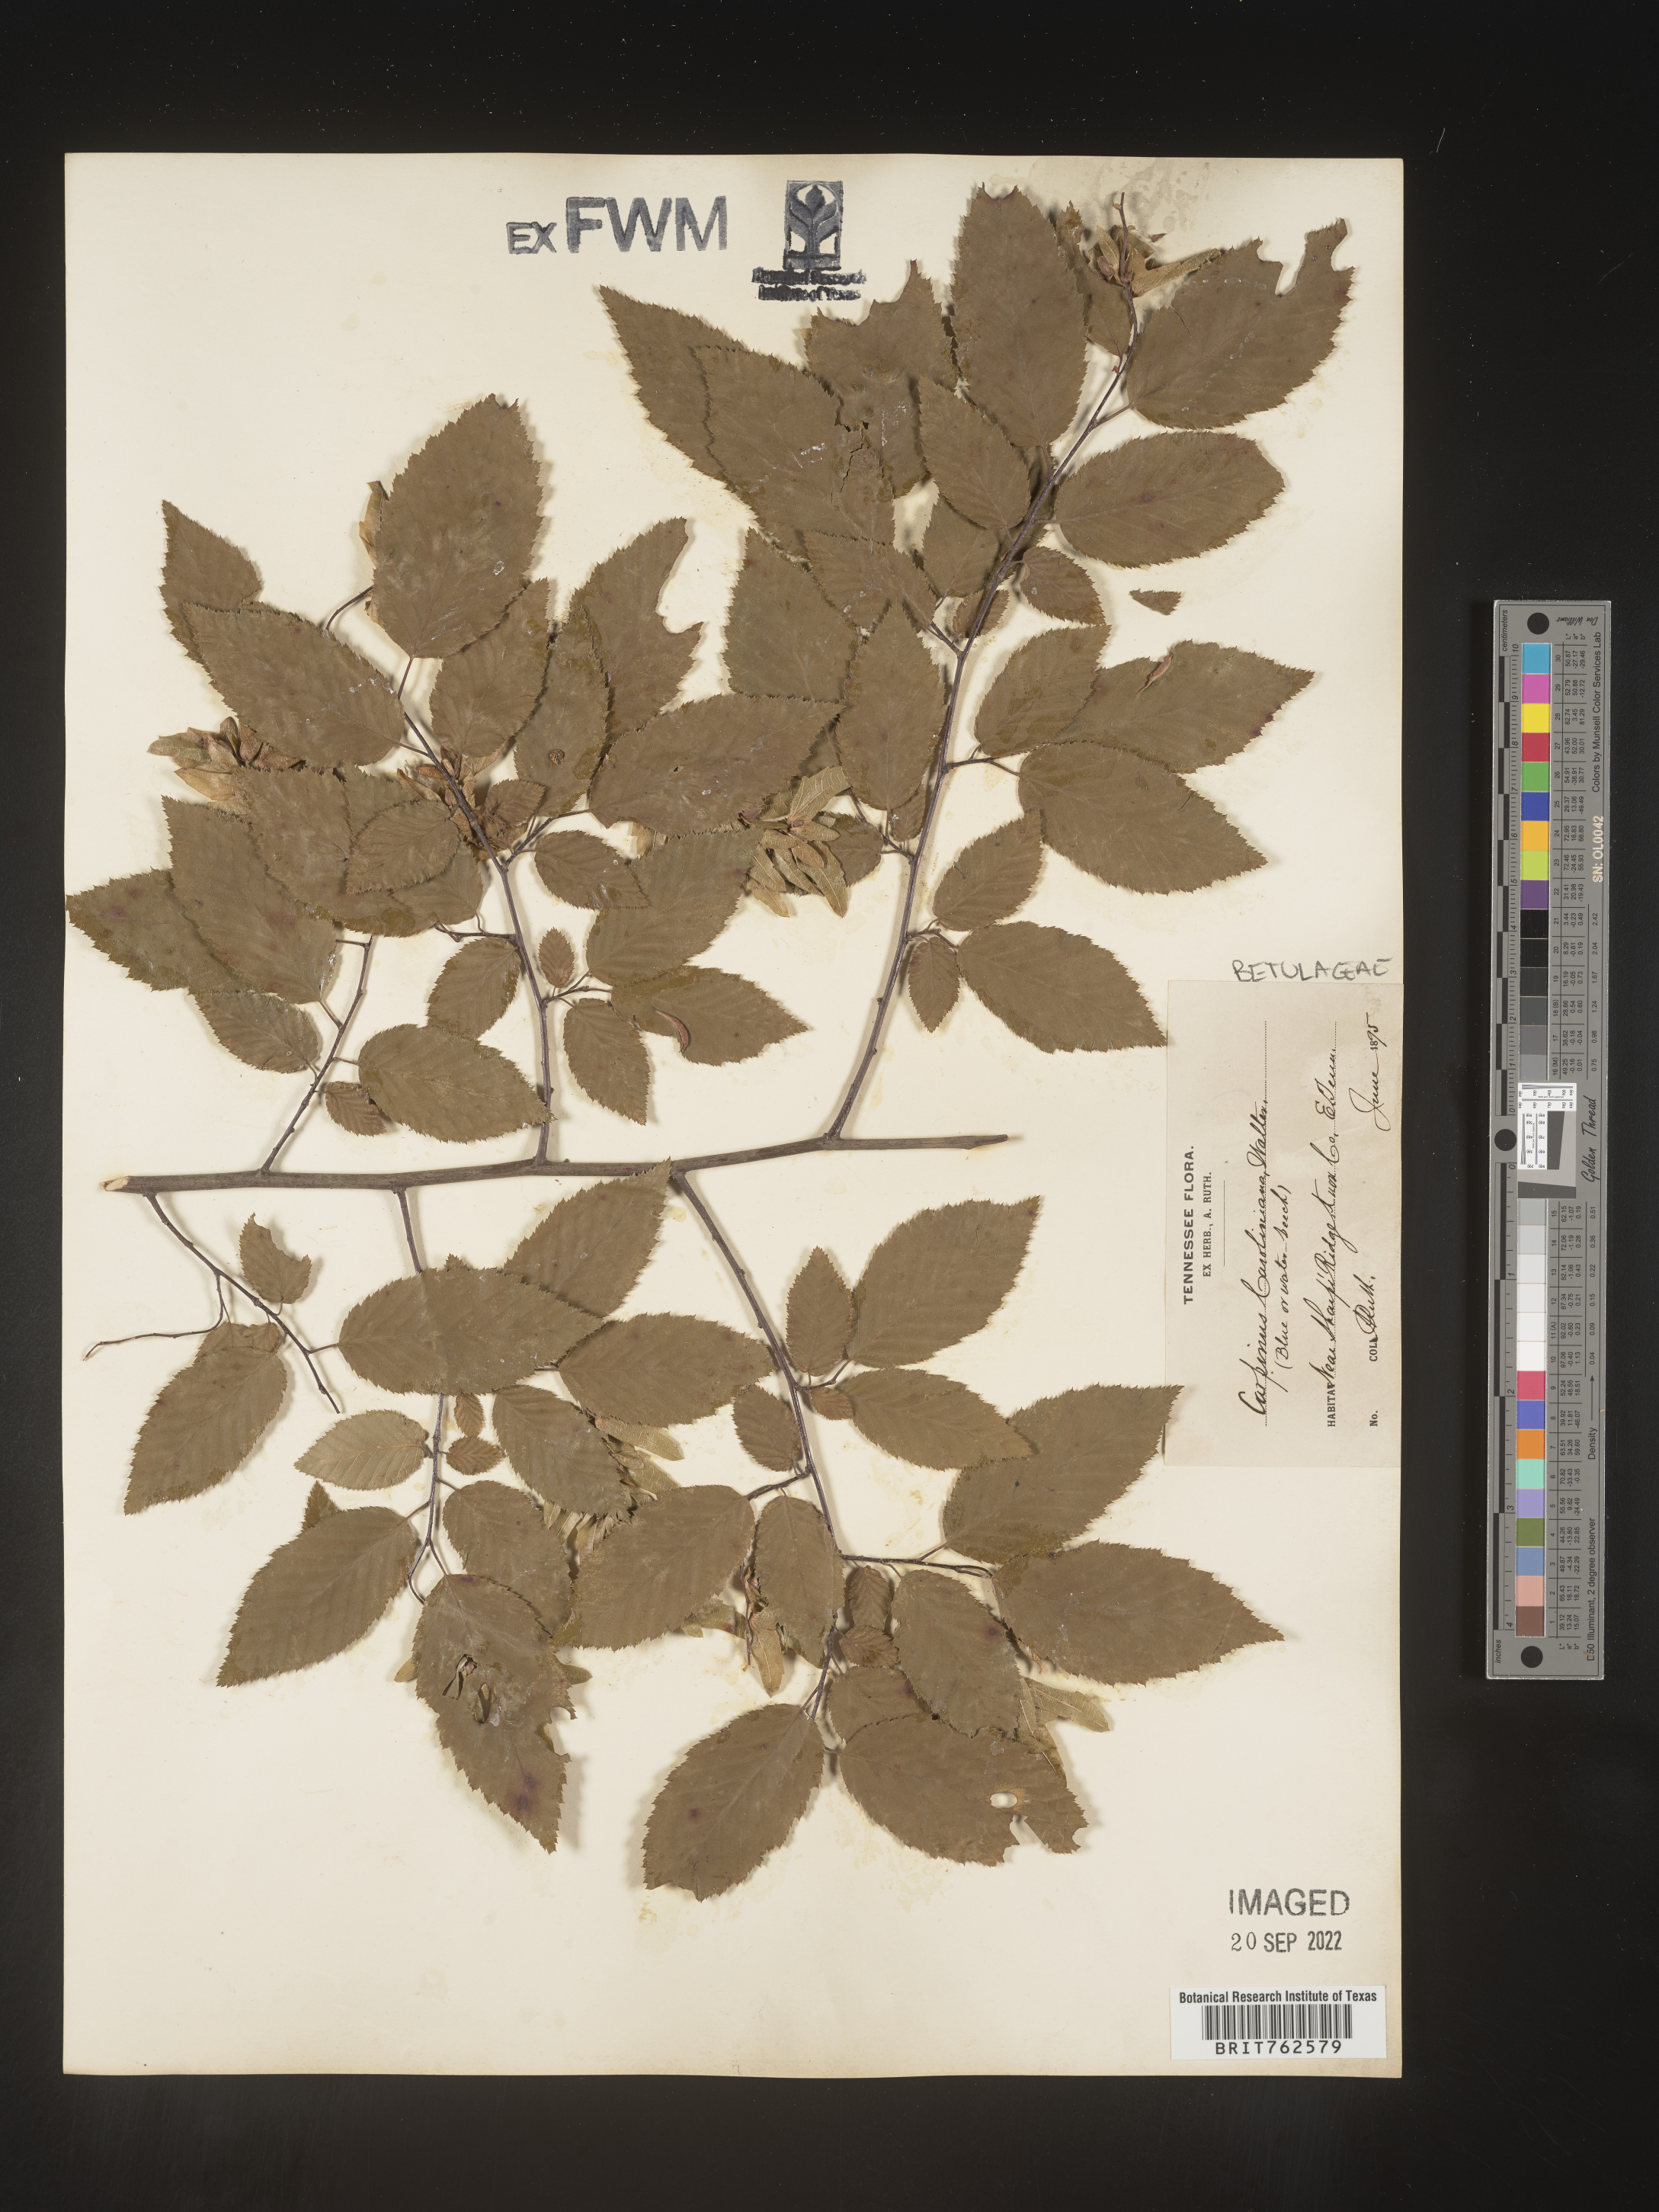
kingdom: Plantae
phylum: Tracheophyta
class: Magnoliopsida
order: Fagales
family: Betulaceae
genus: Carpinus
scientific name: Carpinus caroliniana
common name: American hornbeam
